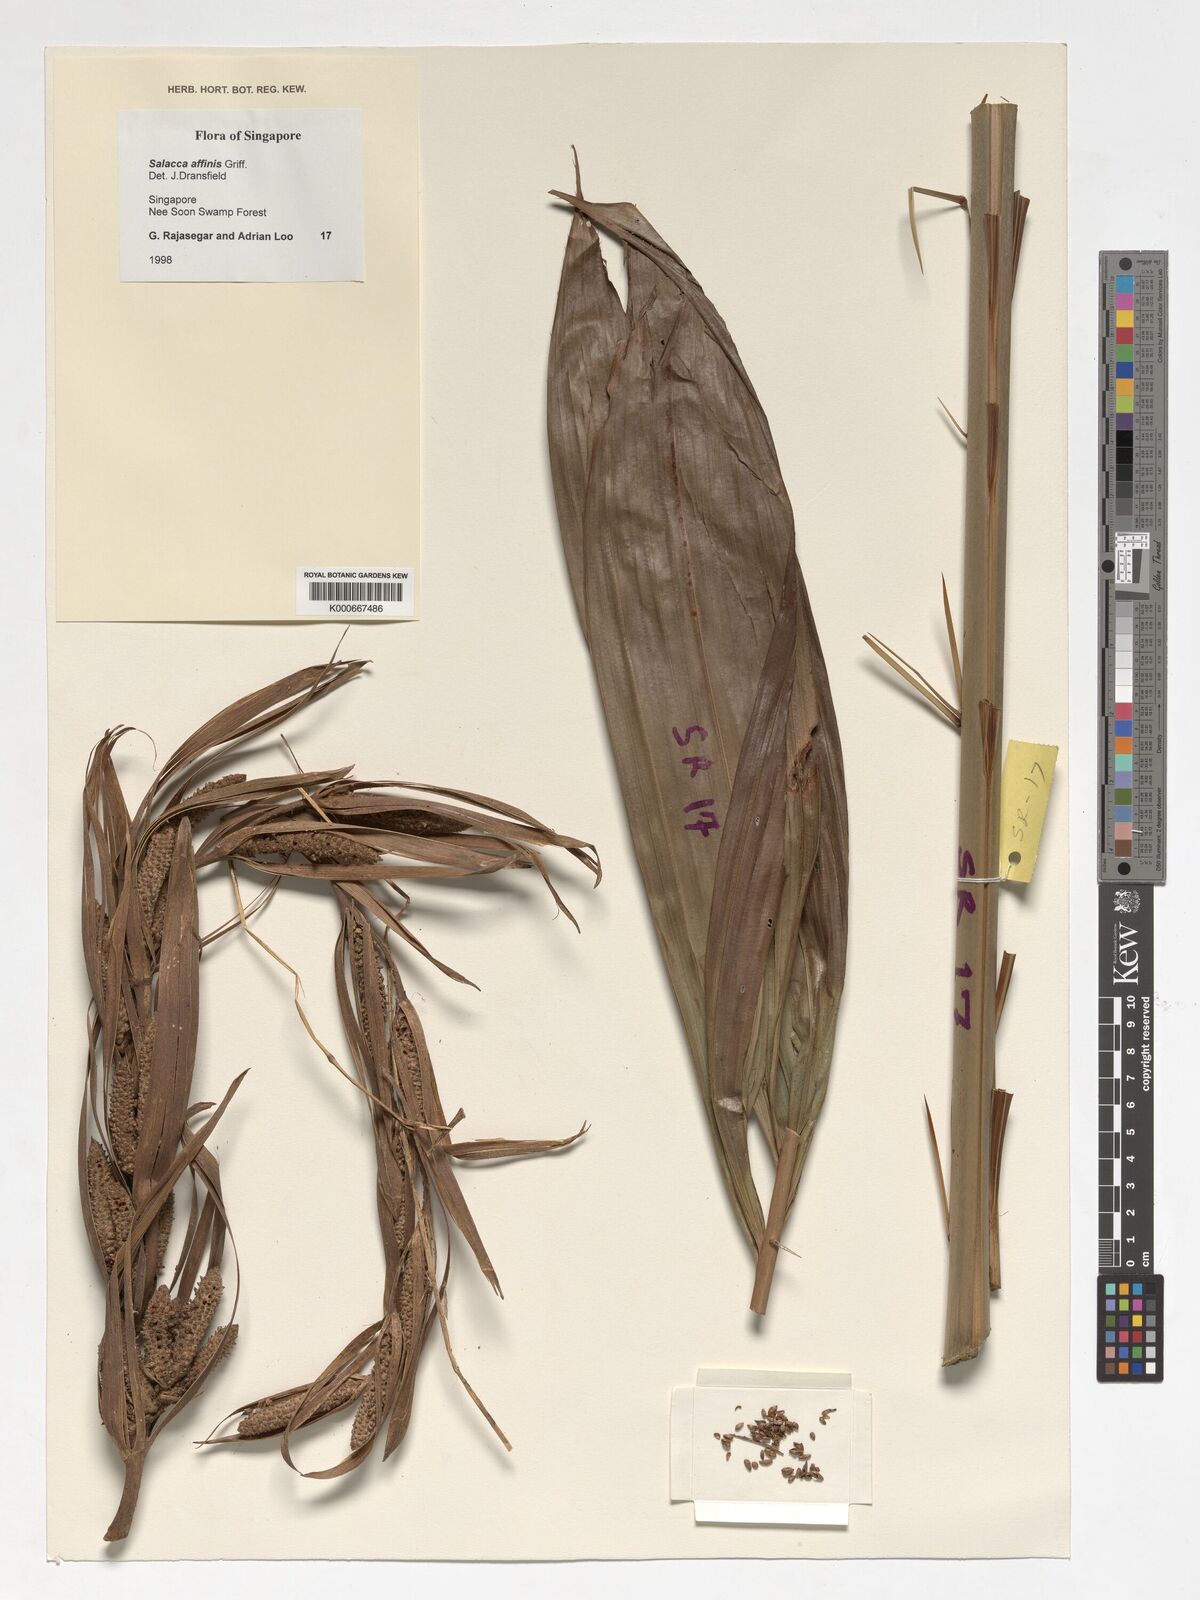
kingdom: Plantae
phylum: Tracheophyta
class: Liliopsida
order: Arecales
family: Arecaceae
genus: Salacca
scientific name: Salacca affinis
